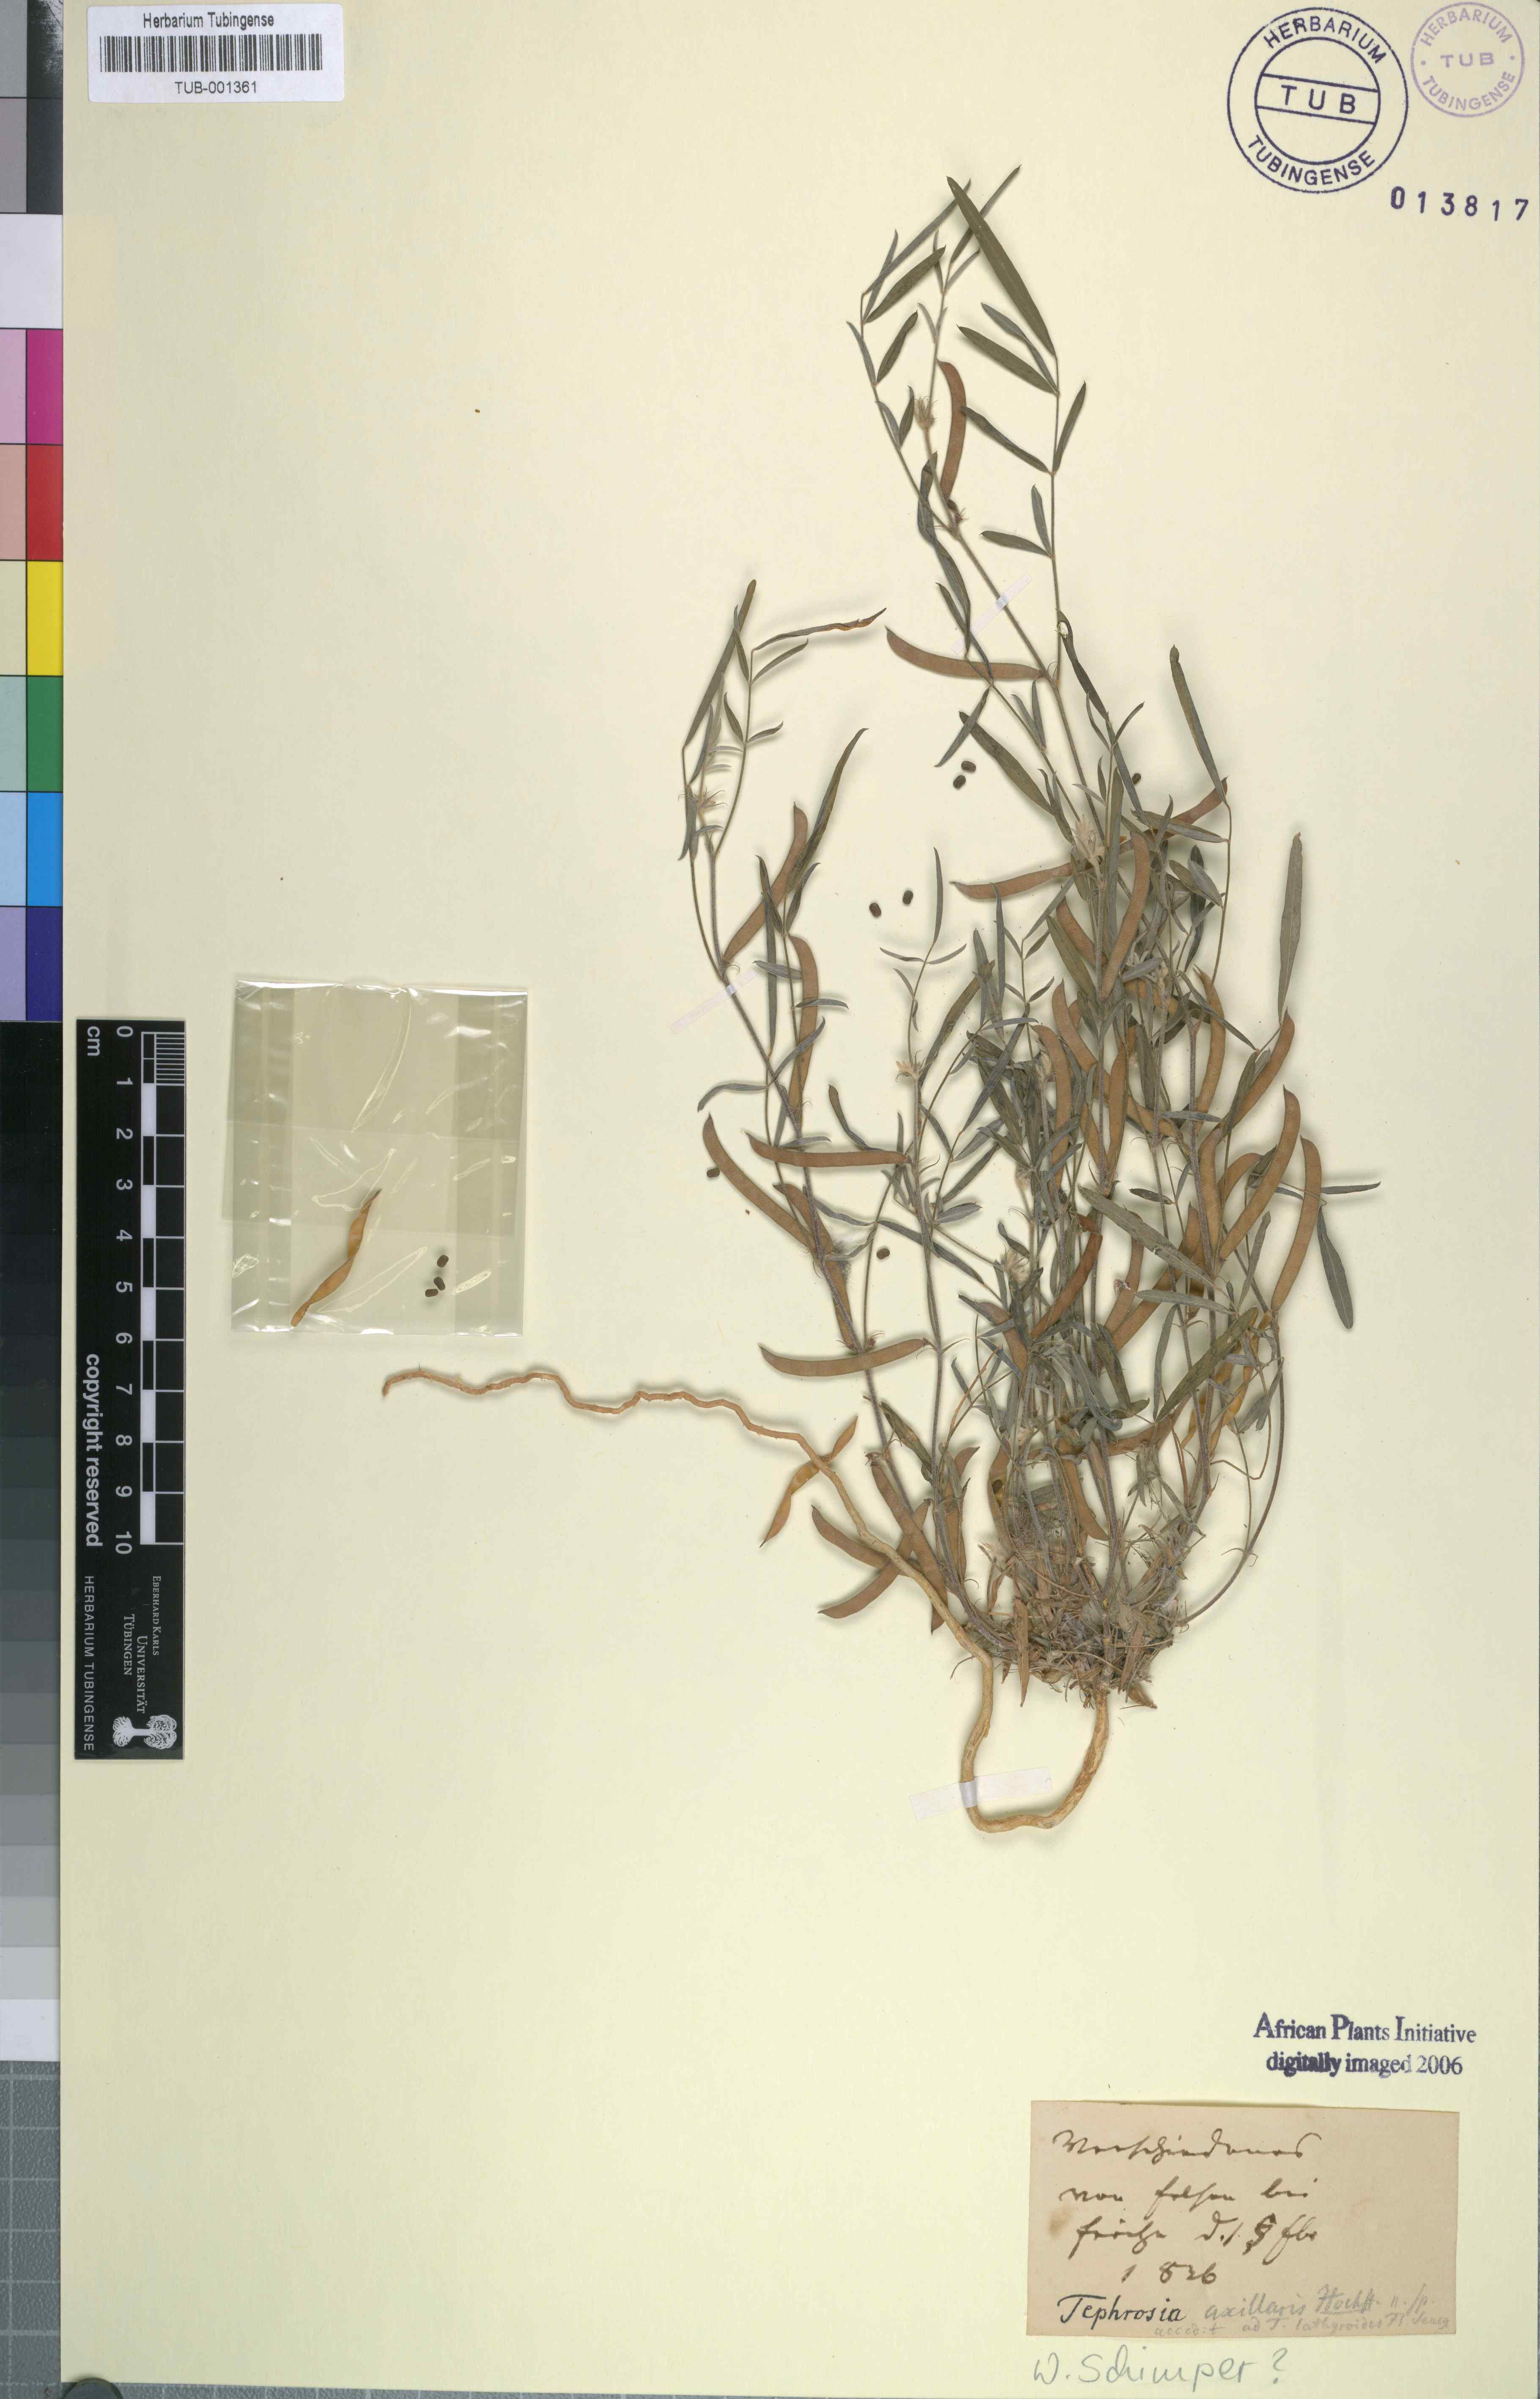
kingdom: Plantae
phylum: Tracheophyta
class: Magnoliopsida
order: Fabales
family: Fabaceae
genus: Tephrosia
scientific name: Tephrosia jamnagarensis
